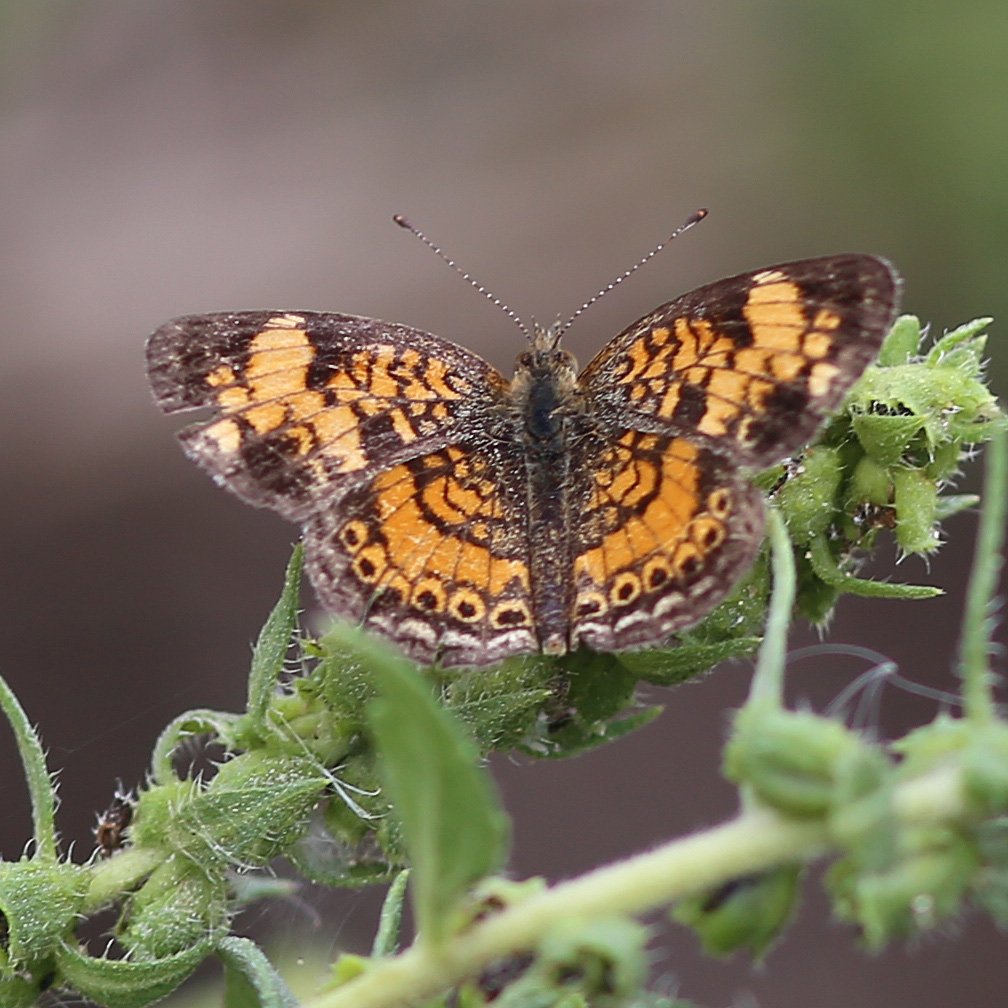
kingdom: Animalia
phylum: Arthropoda
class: Insecta
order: Lepidoptera
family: Nymphalidae
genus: Phyciodes
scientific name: Phyciodes tharos
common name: Pearl Crescent
